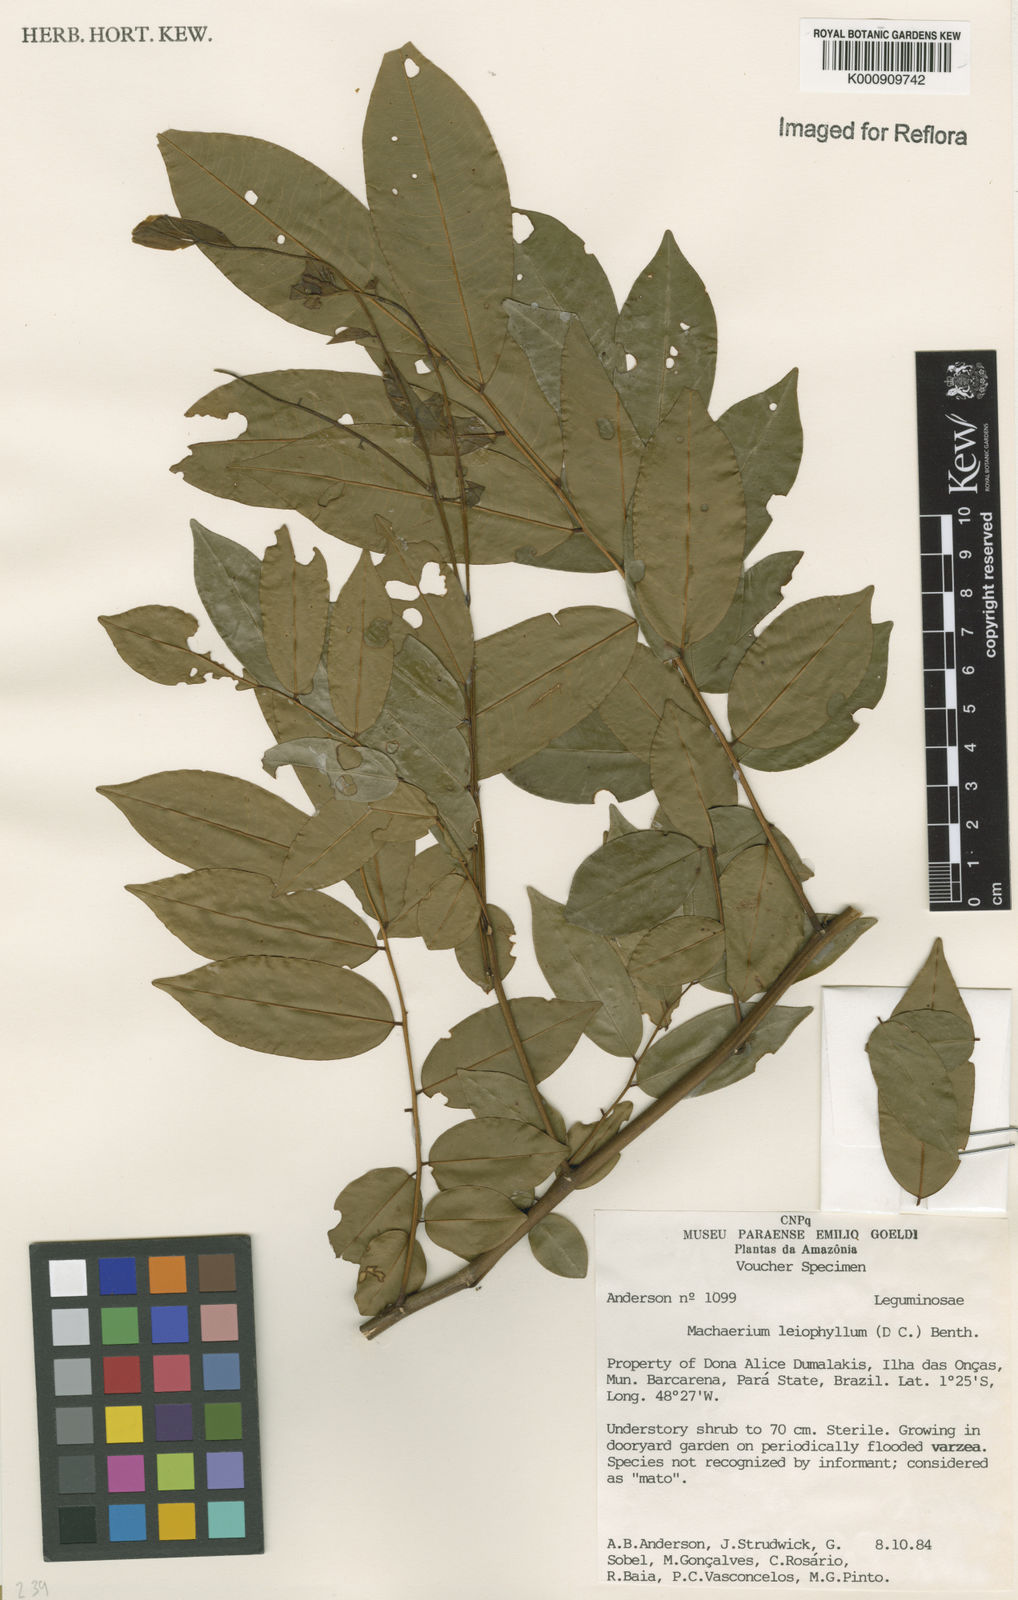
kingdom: Plantae
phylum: Tracheophyta
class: Magnoliopsida
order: Fabales
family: Fabaceae
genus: Machaerium
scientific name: Machaerium leiophyllum
